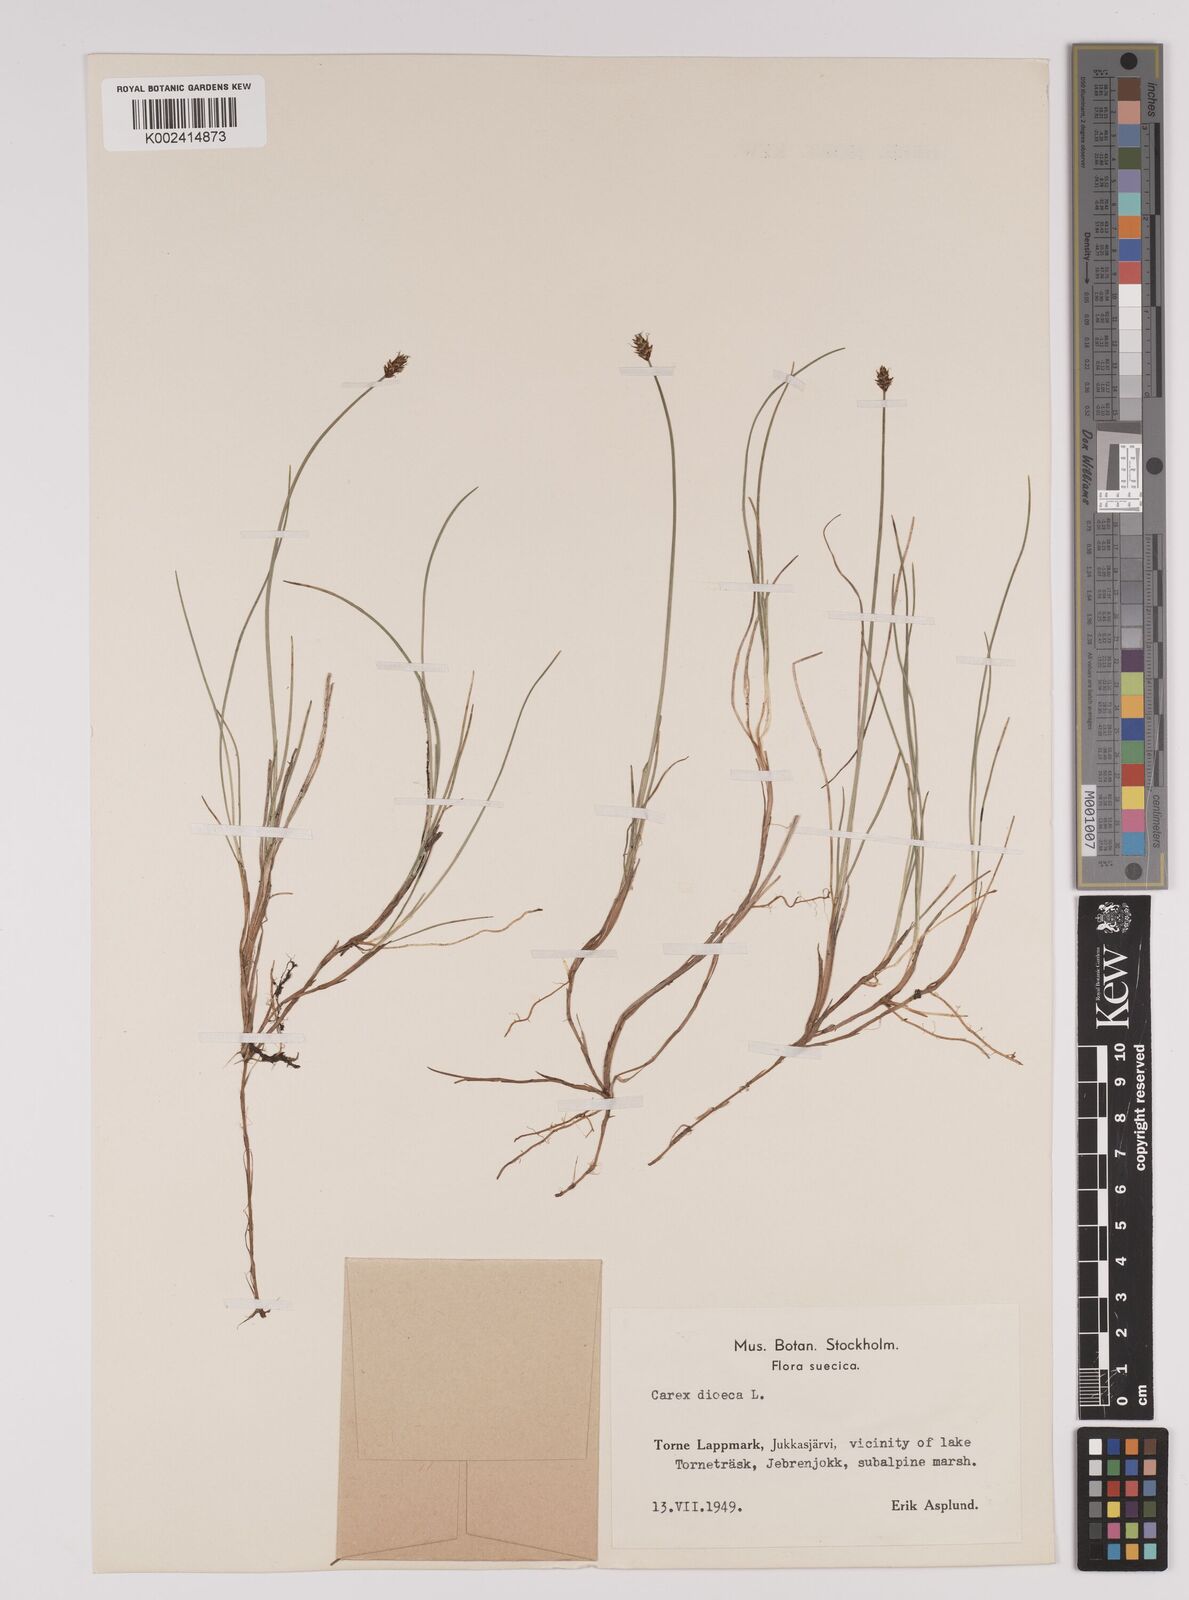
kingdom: Plantae
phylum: Tracheophyta
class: Liliopsida
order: Poales
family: Cyperaceae
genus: Carex
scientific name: Carex dioica
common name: Dioecious sedge
